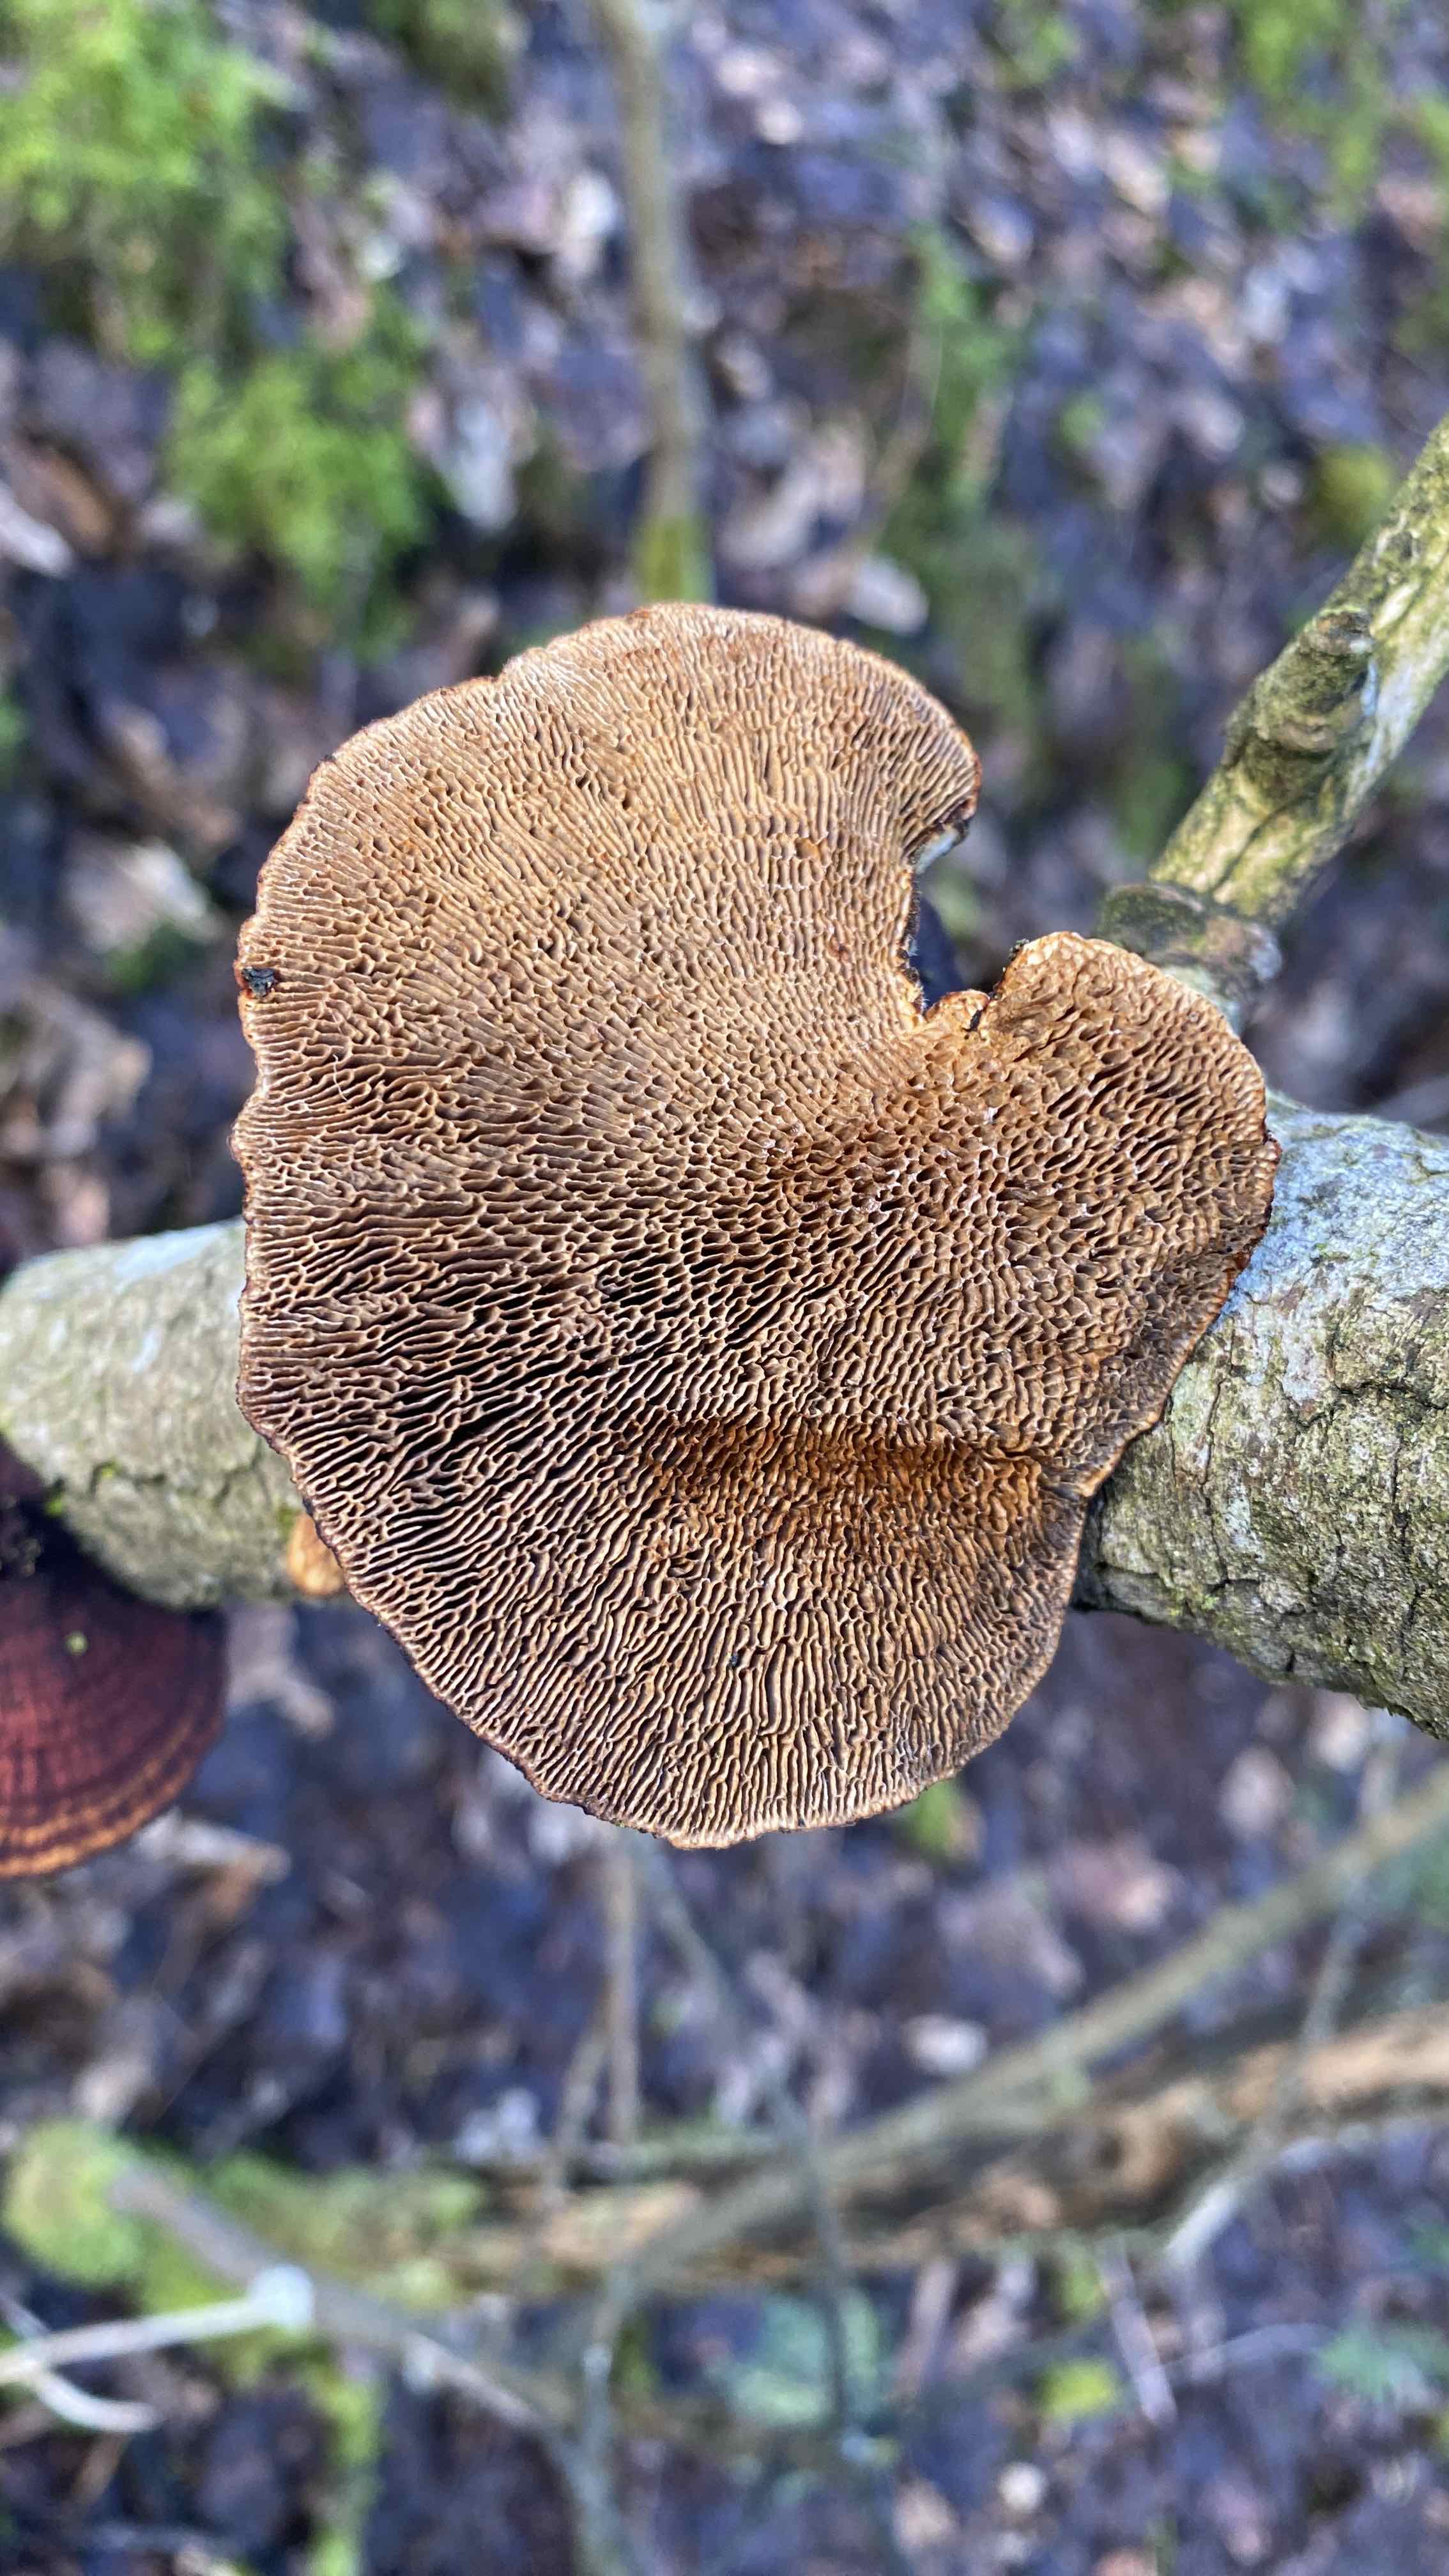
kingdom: Fungi
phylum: Basidiomycota
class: Agaricomycetes
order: Polyporales
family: Polyporaceae
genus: Daedaleopsis
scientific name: Daedaleopsis confragosa
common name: rødmende læderporesvamp
